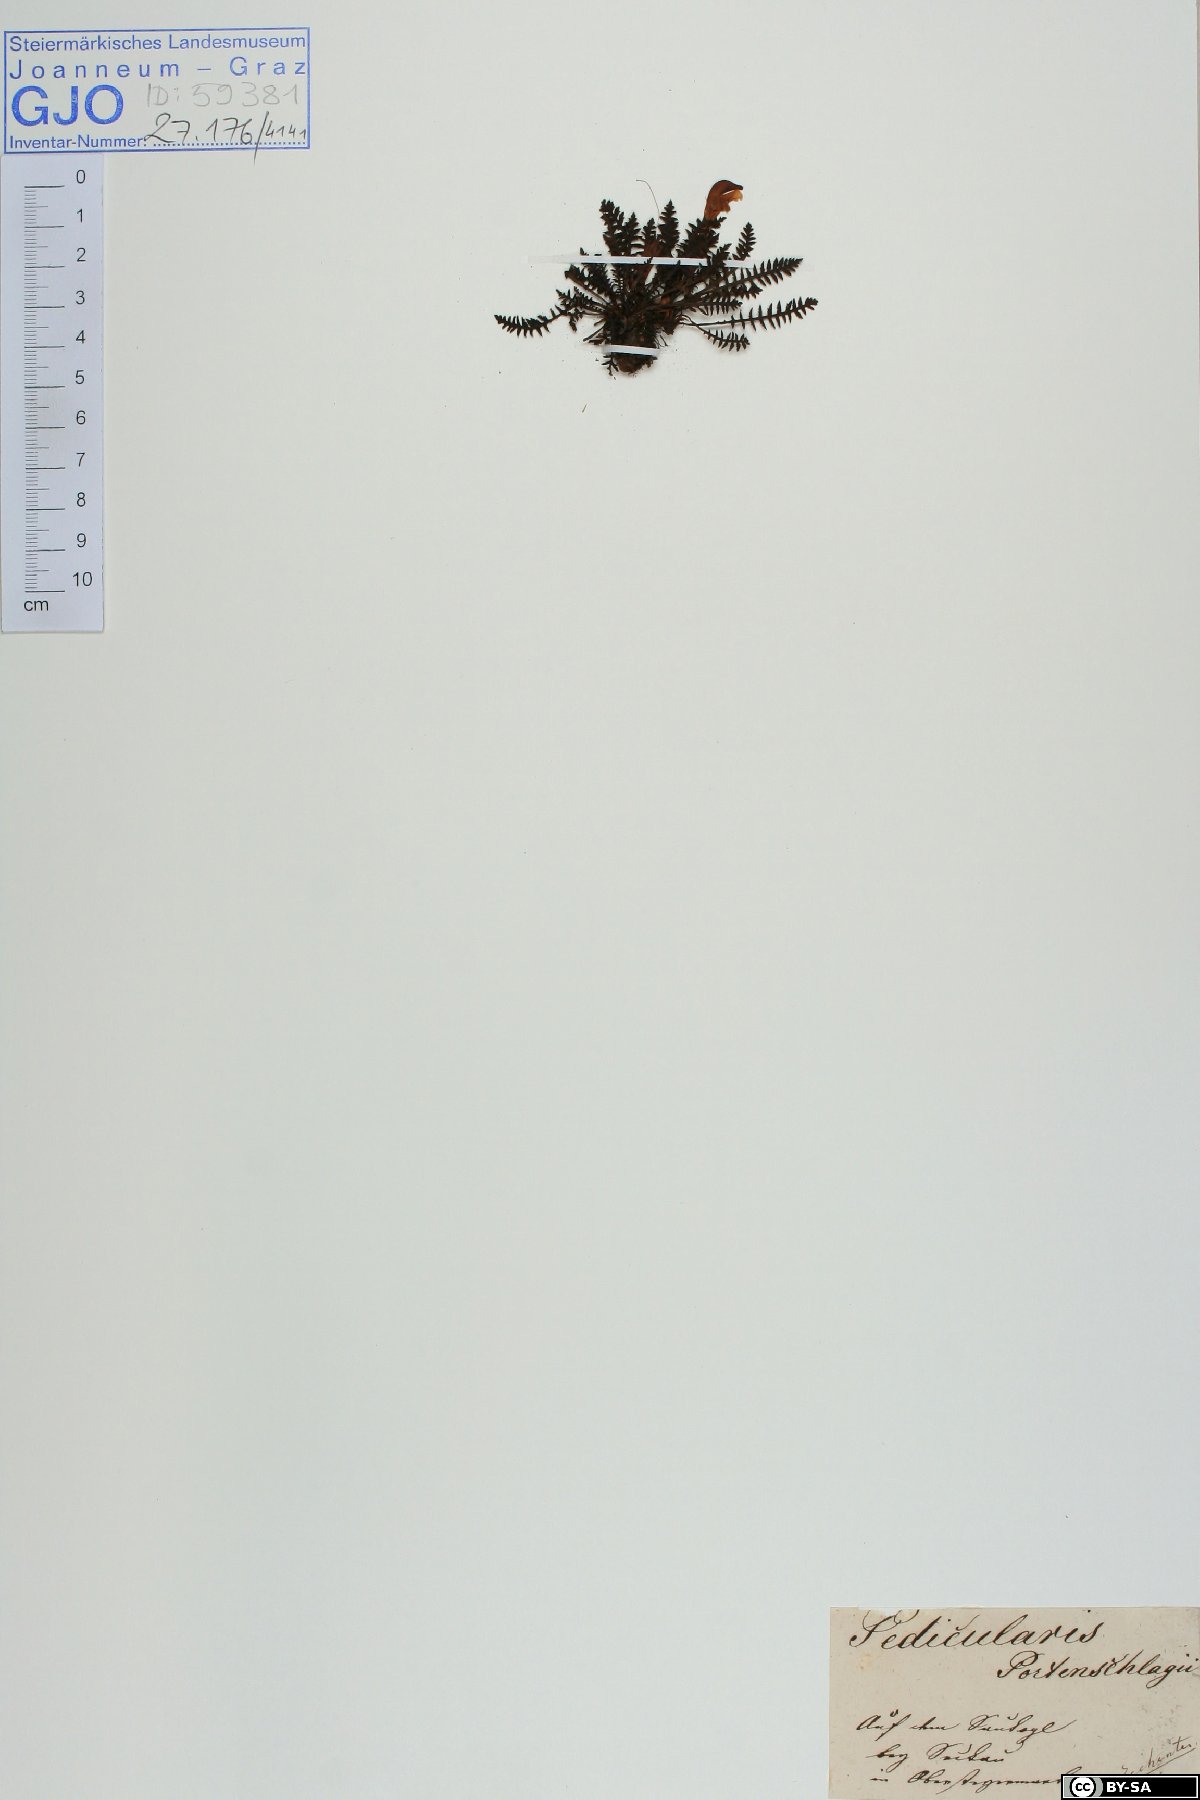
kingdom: Plantae
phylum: Tracheophyta
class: Magnoliopsida
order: Lamiales
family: Orobanchaceae
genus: Pedicularis
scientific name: Pedicularis portenschlagii
